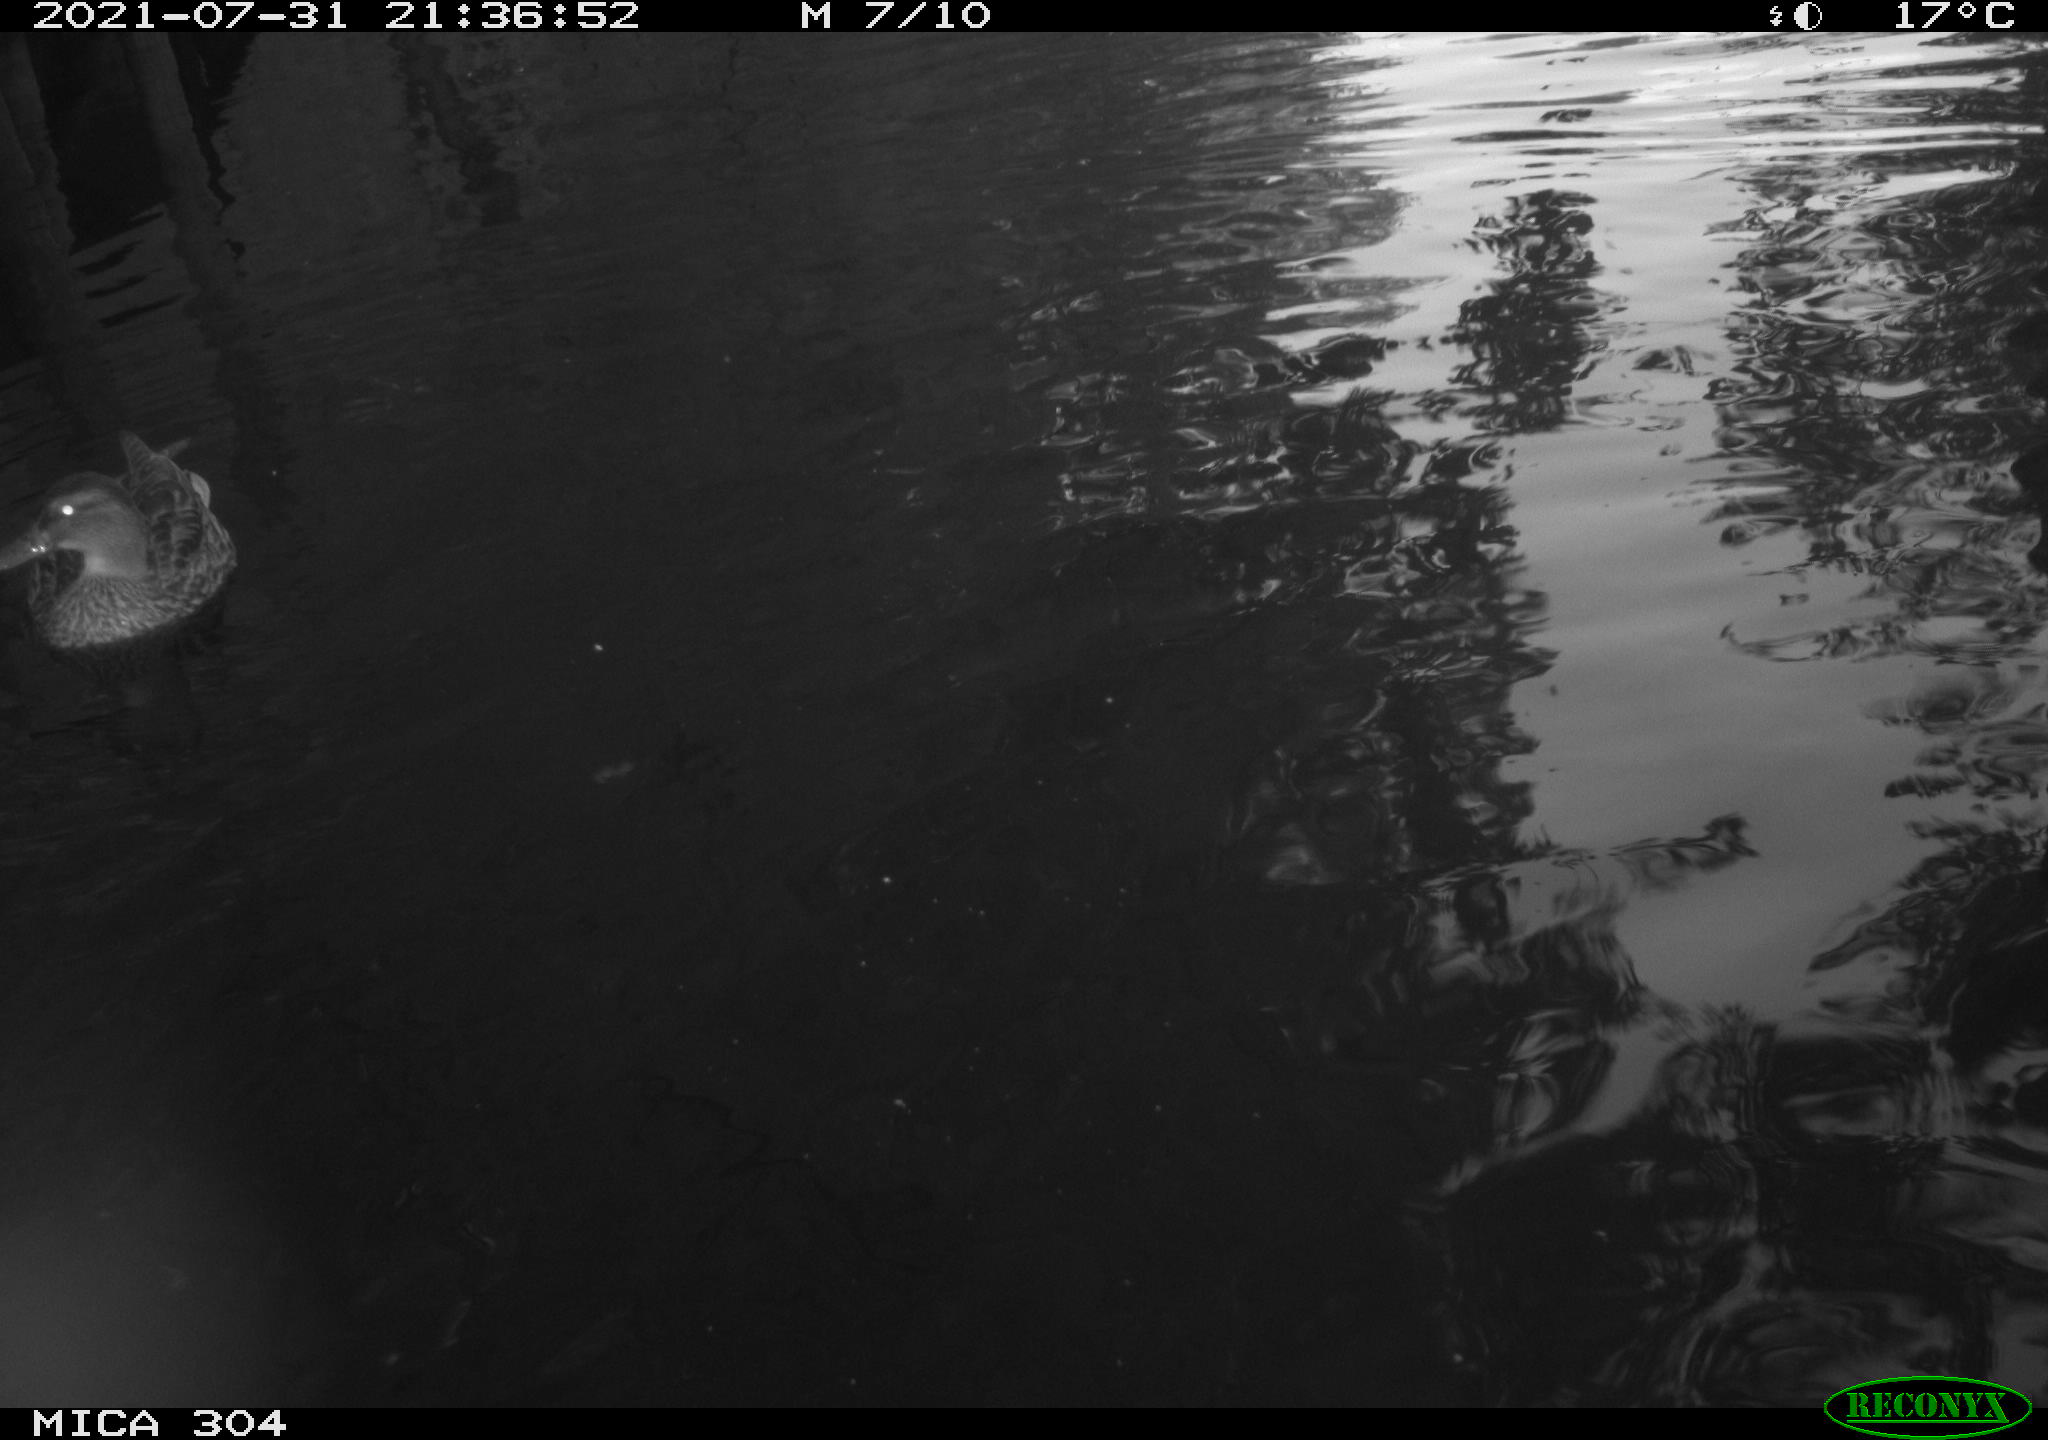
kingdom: Animalia
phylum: Chordata
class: Aves
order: Anseriformes
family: Anatidae
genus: Mareca
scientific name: Mareca strepera
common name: Gadwall
